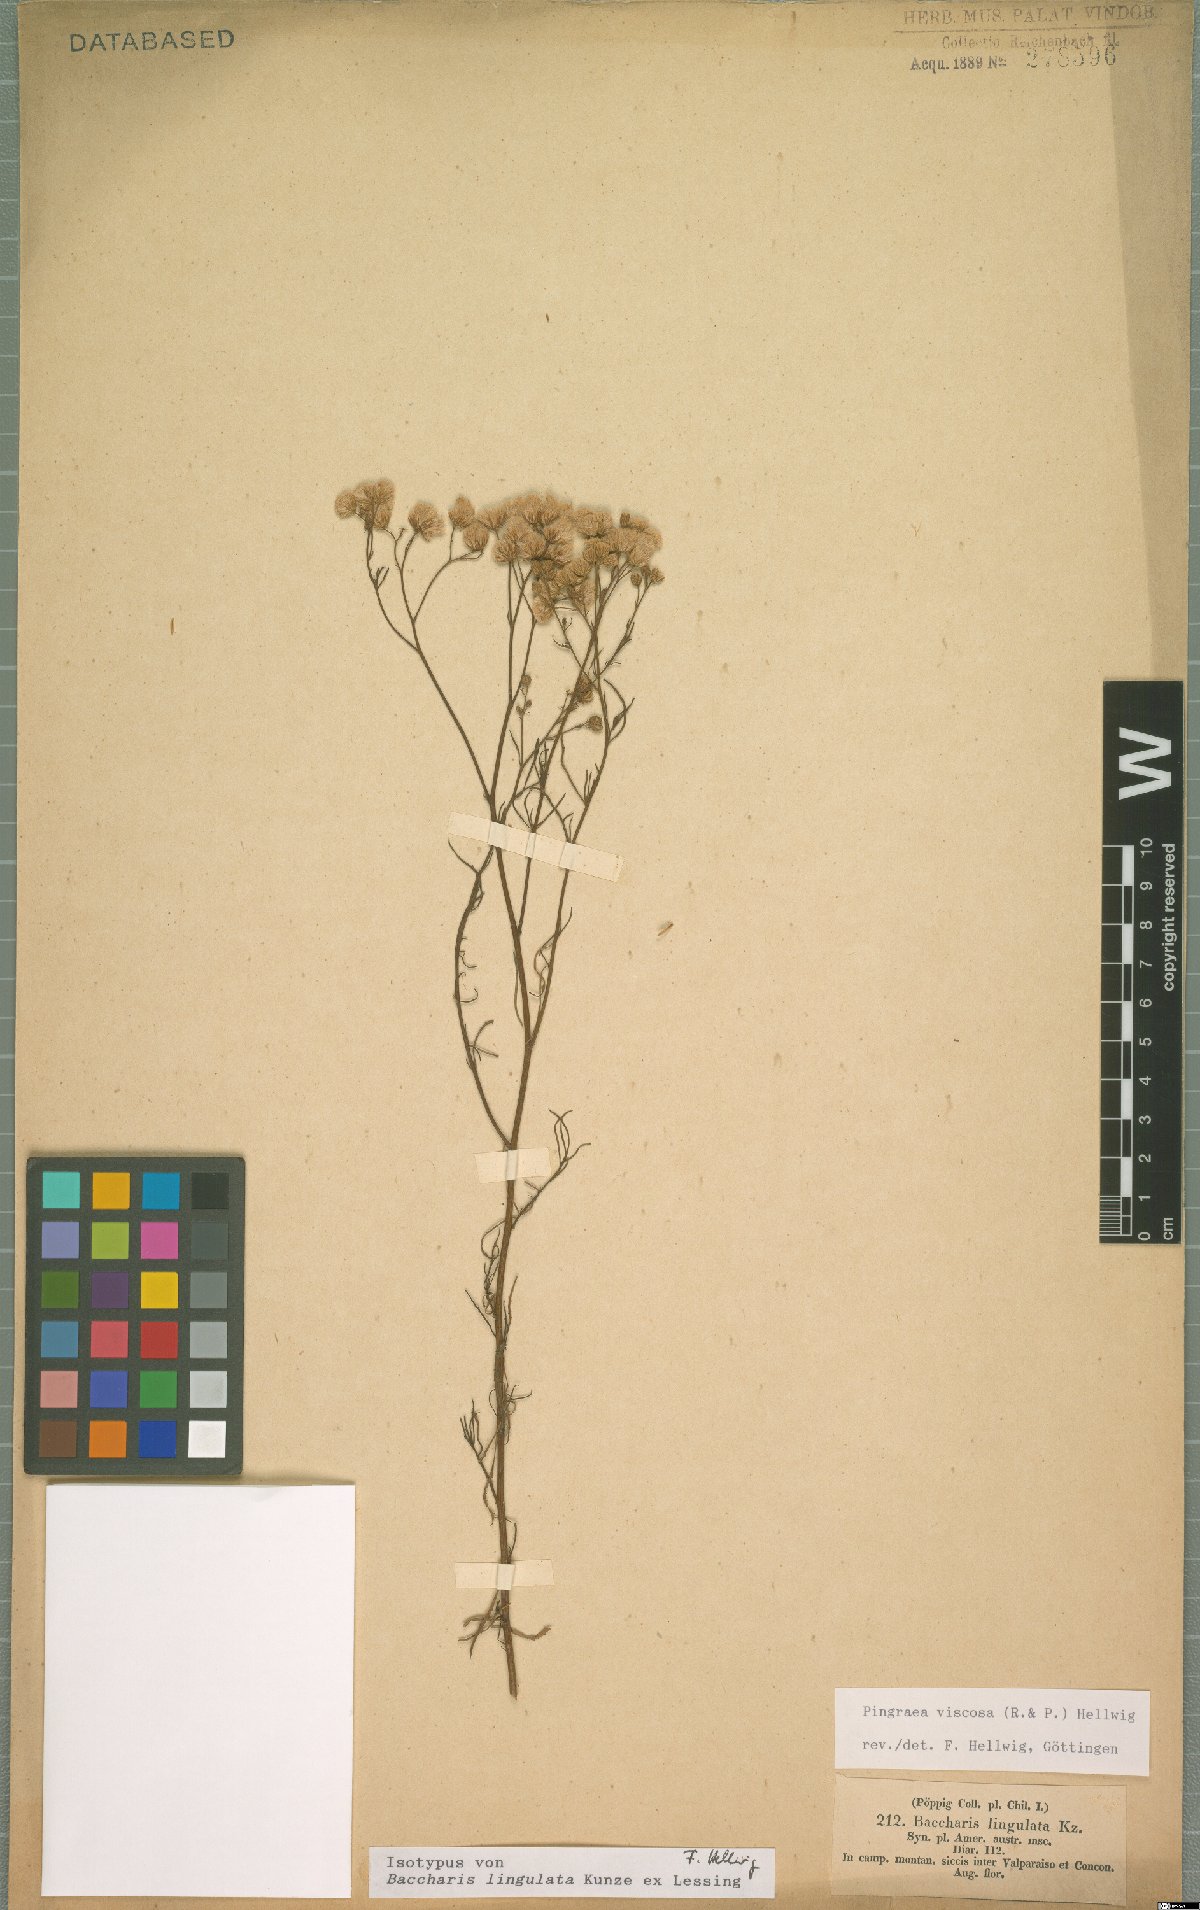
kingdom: Plantae
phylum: Tracheophyta
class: Magnoliopsida
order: Asterales
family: Asteraceae
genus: Baccharis
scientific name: Baccharis glutinosa
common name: Saltmarsh baccharis
